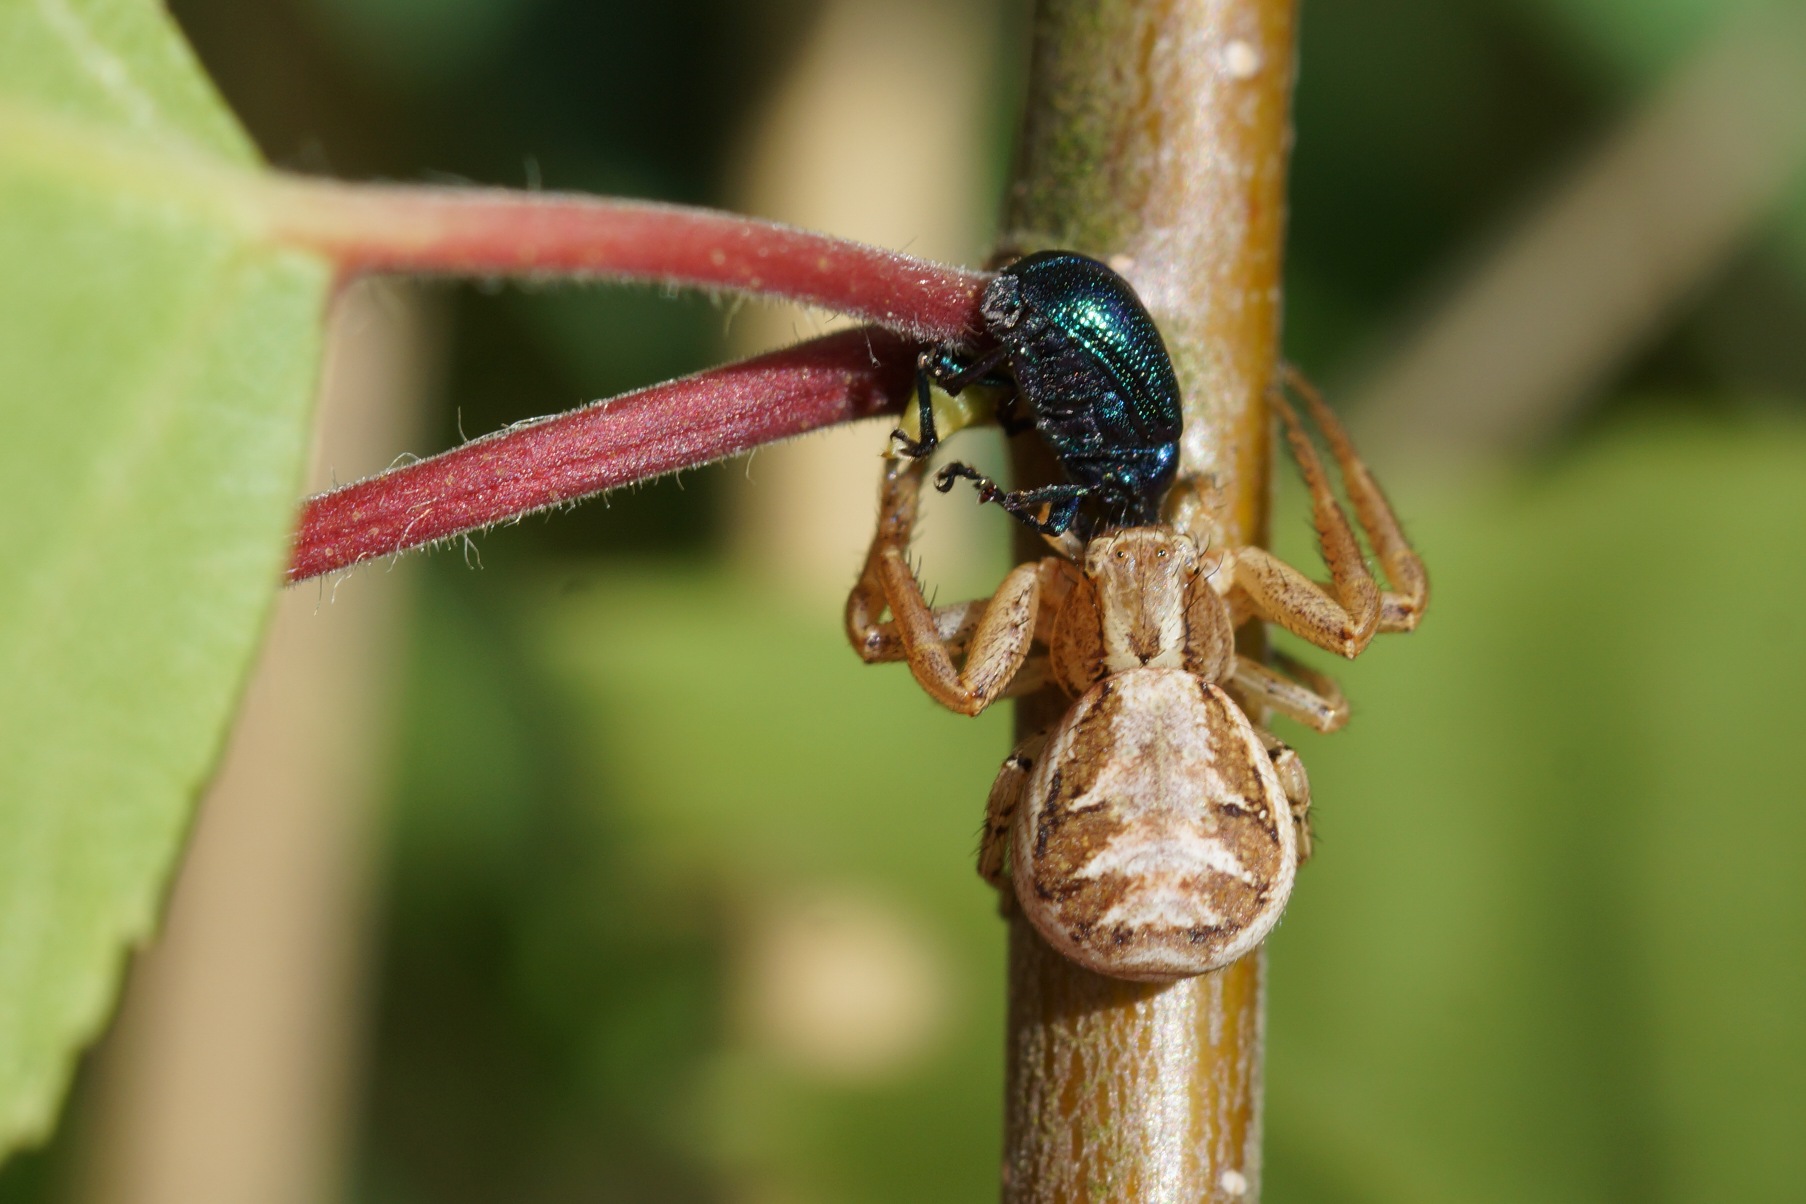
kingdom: Animalia
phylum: Arthropoda
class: Arachnida
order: Araneae
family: Thomisidae
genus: Xysticus
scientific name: Xysticus cristatus
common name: Almindelig krabbeedderkop
